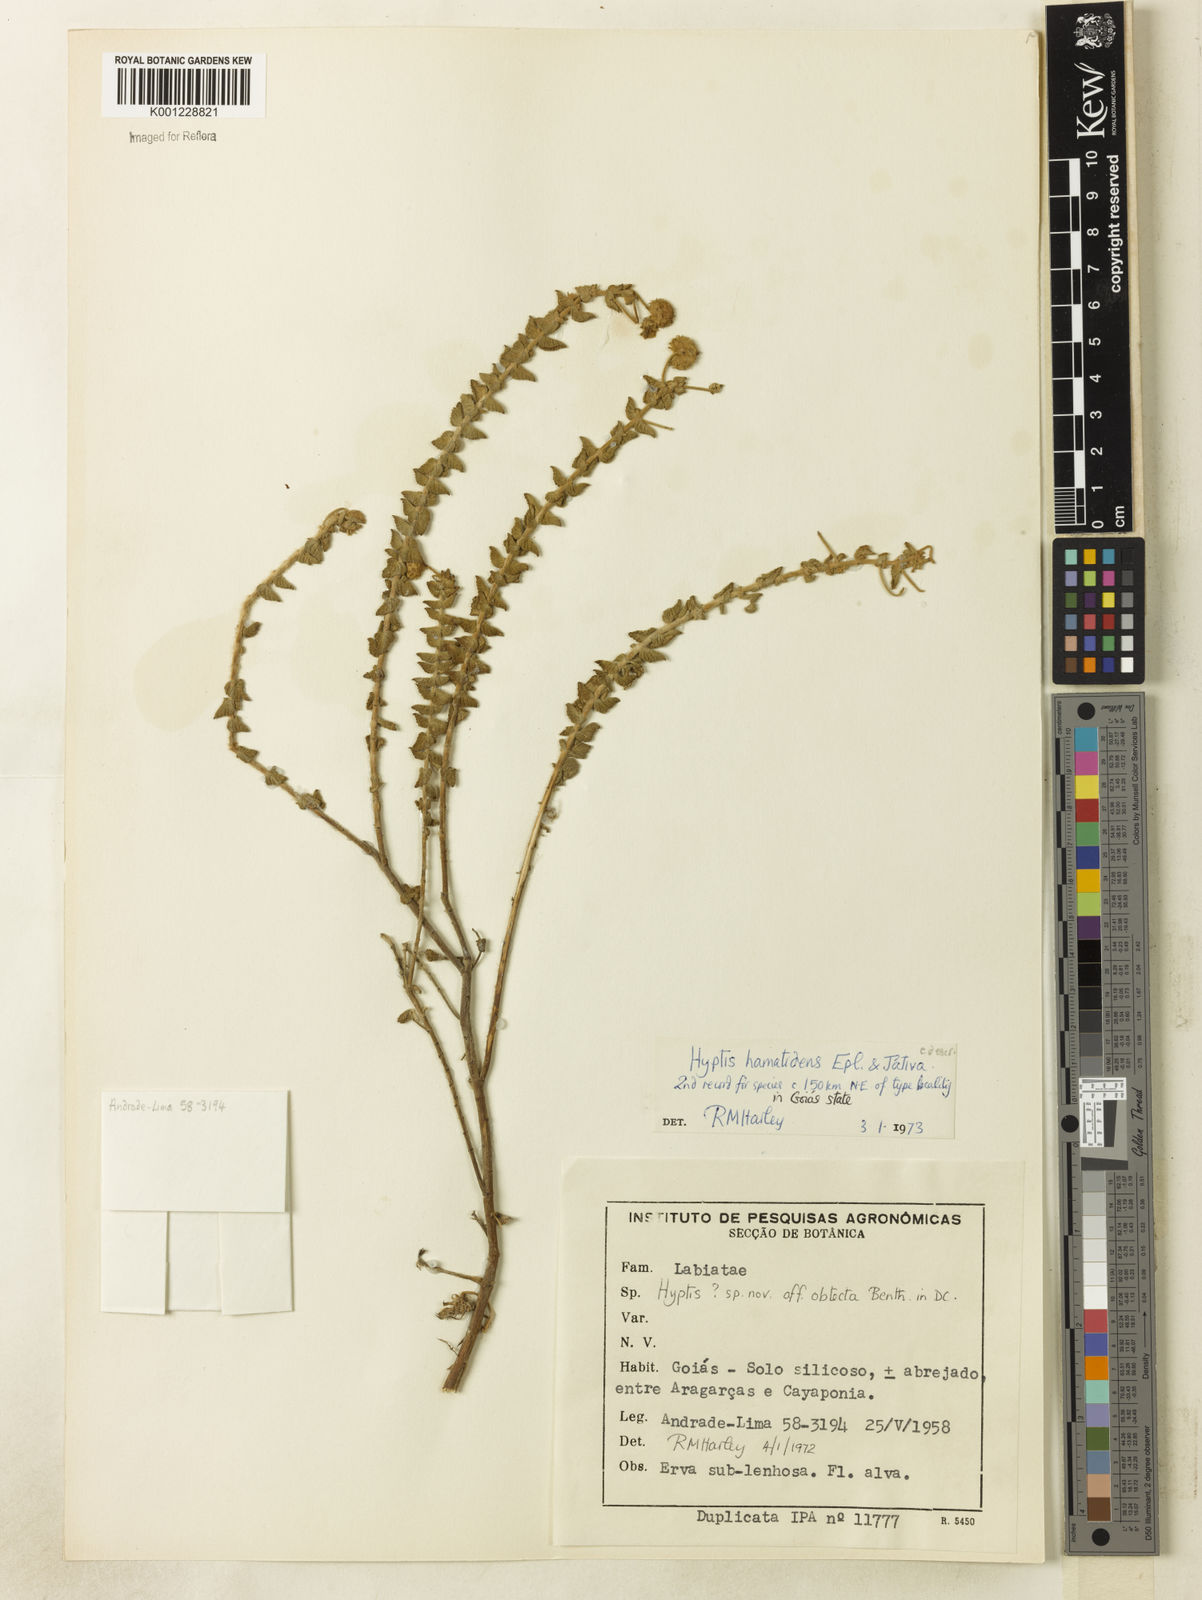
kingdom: Plantae
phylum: Tracheophyta
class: Magnoliopsida
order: Lamiales
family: Lamiaceae
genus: Hyptis
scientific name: Hyptis
